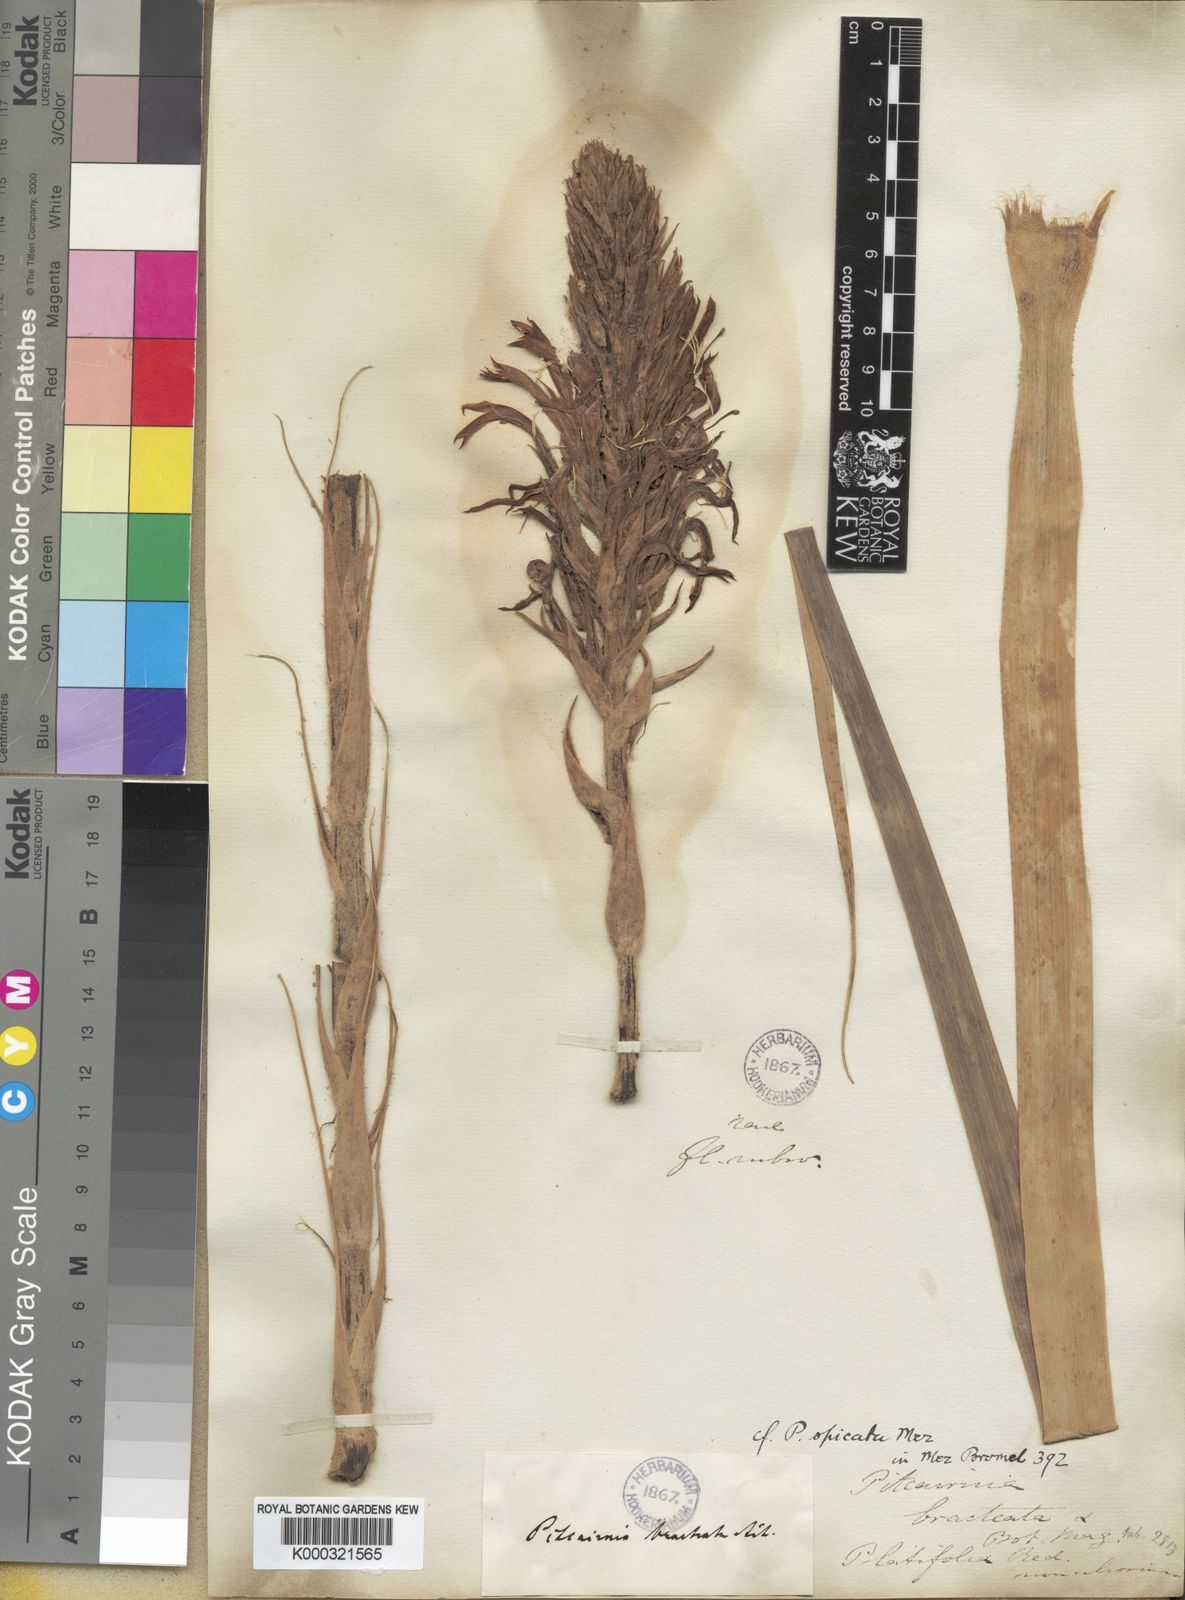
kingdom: Plantae
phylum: Tracheophyta
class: Liliopsida
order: Poales
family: Bromeliaceae
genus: Pitcairnia
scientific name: Pitcairnia spicata
